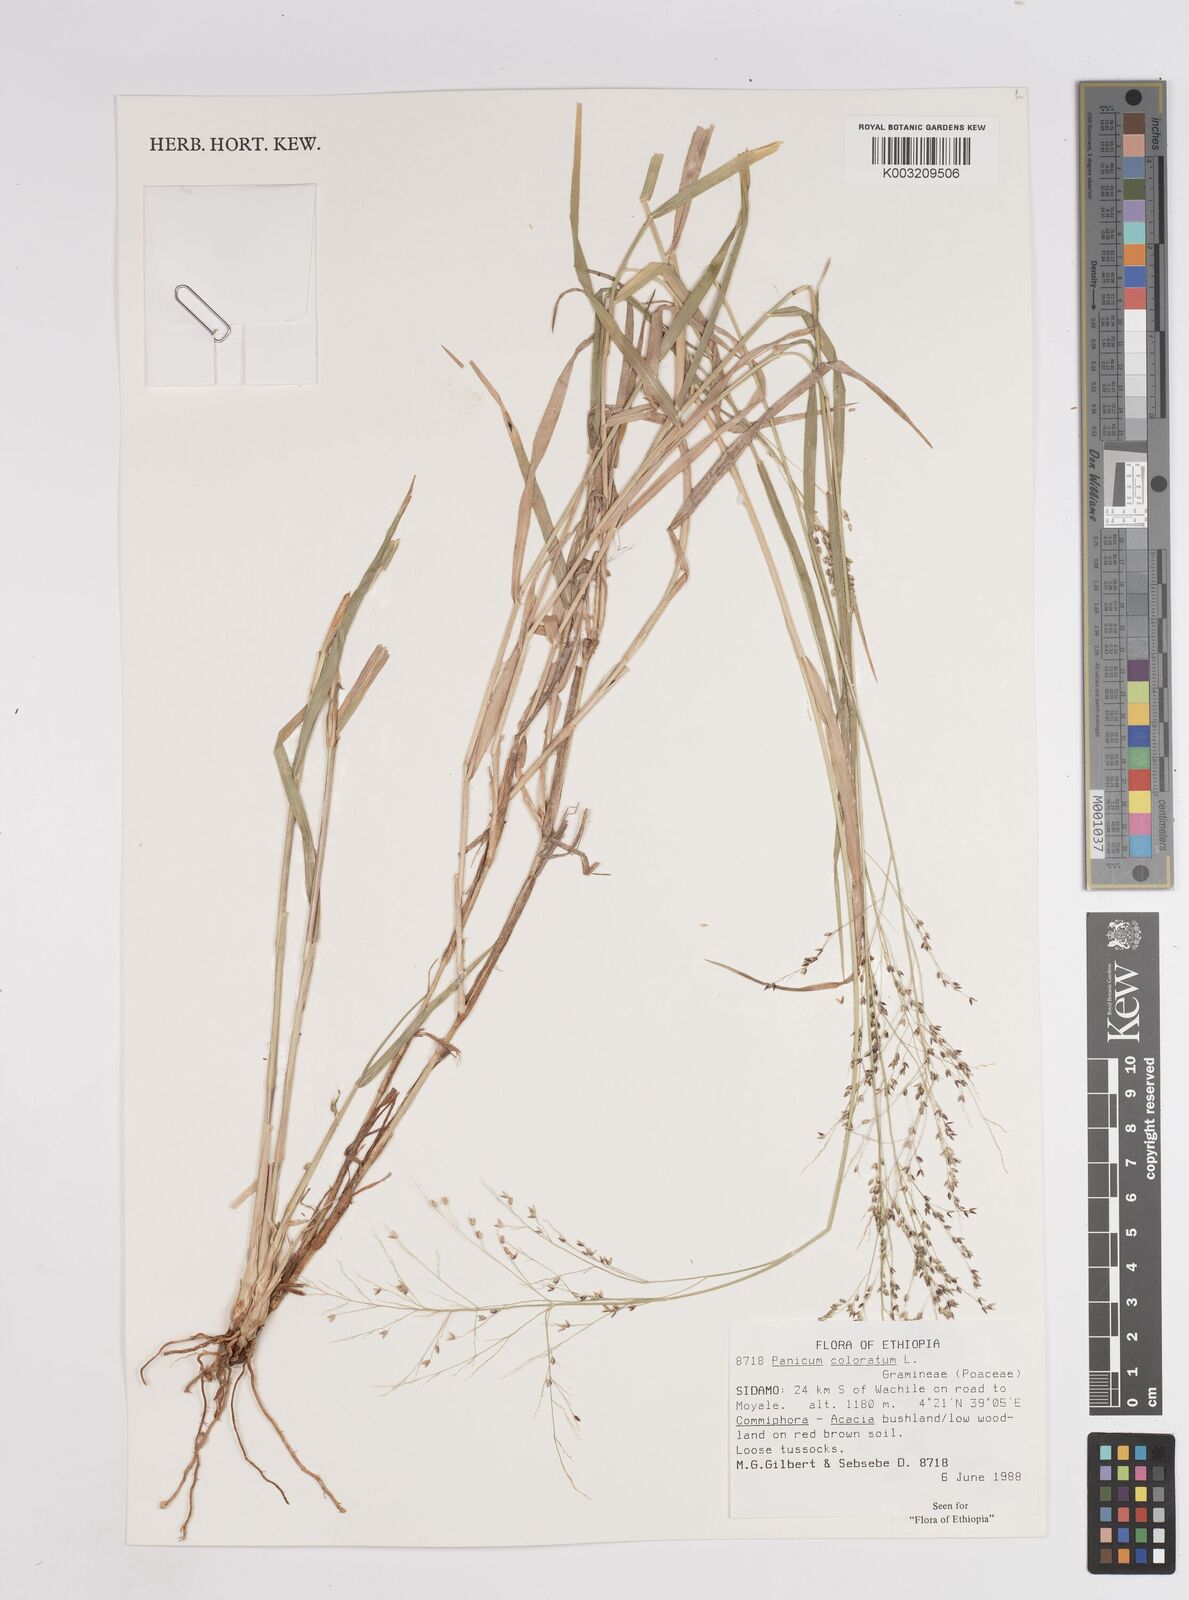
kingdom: Plantae
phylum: Tracheophyta
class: Liliopsida
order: Poales
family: Poaceae
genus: Panicum
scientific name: Panicum coloratum
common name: Kleingrass
